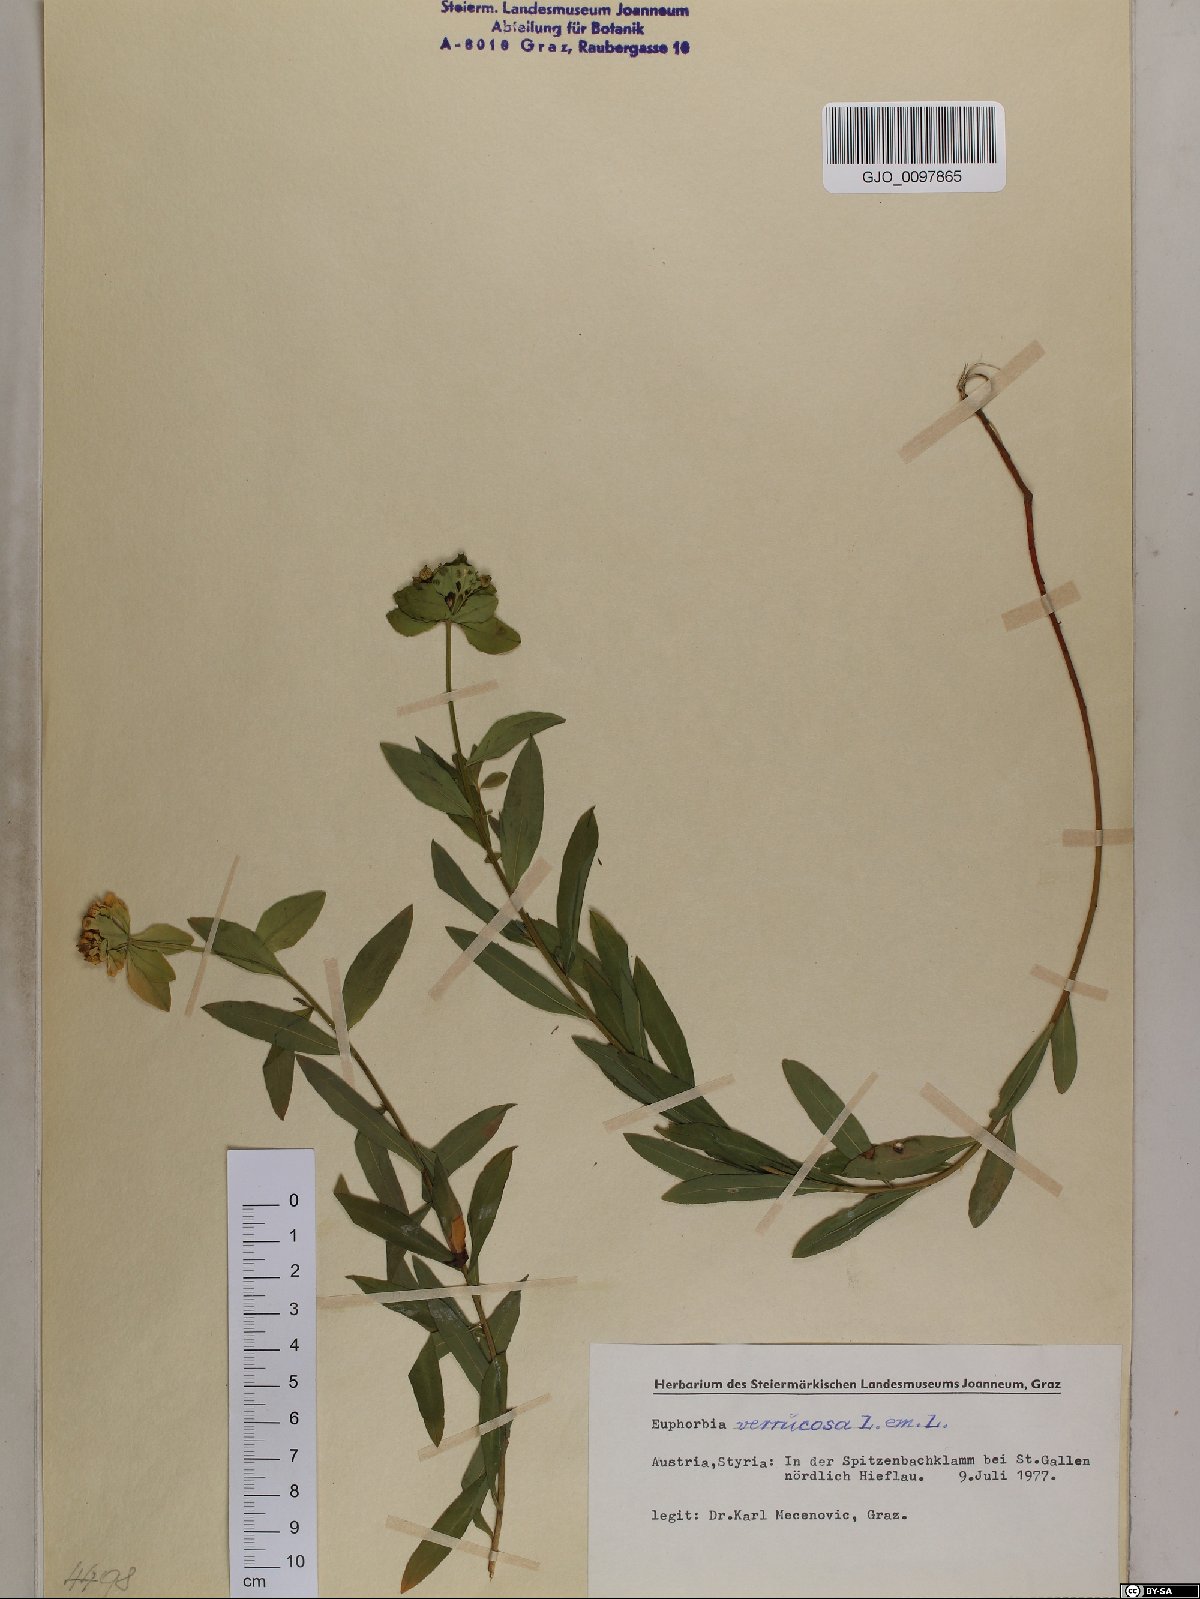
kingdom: Plantae
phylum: Tracheophyta
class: Magnoliopsida
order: Malpighiales
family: Euphorbiaceae
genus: Euphorbia
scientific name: Euphorbia verrucosa
